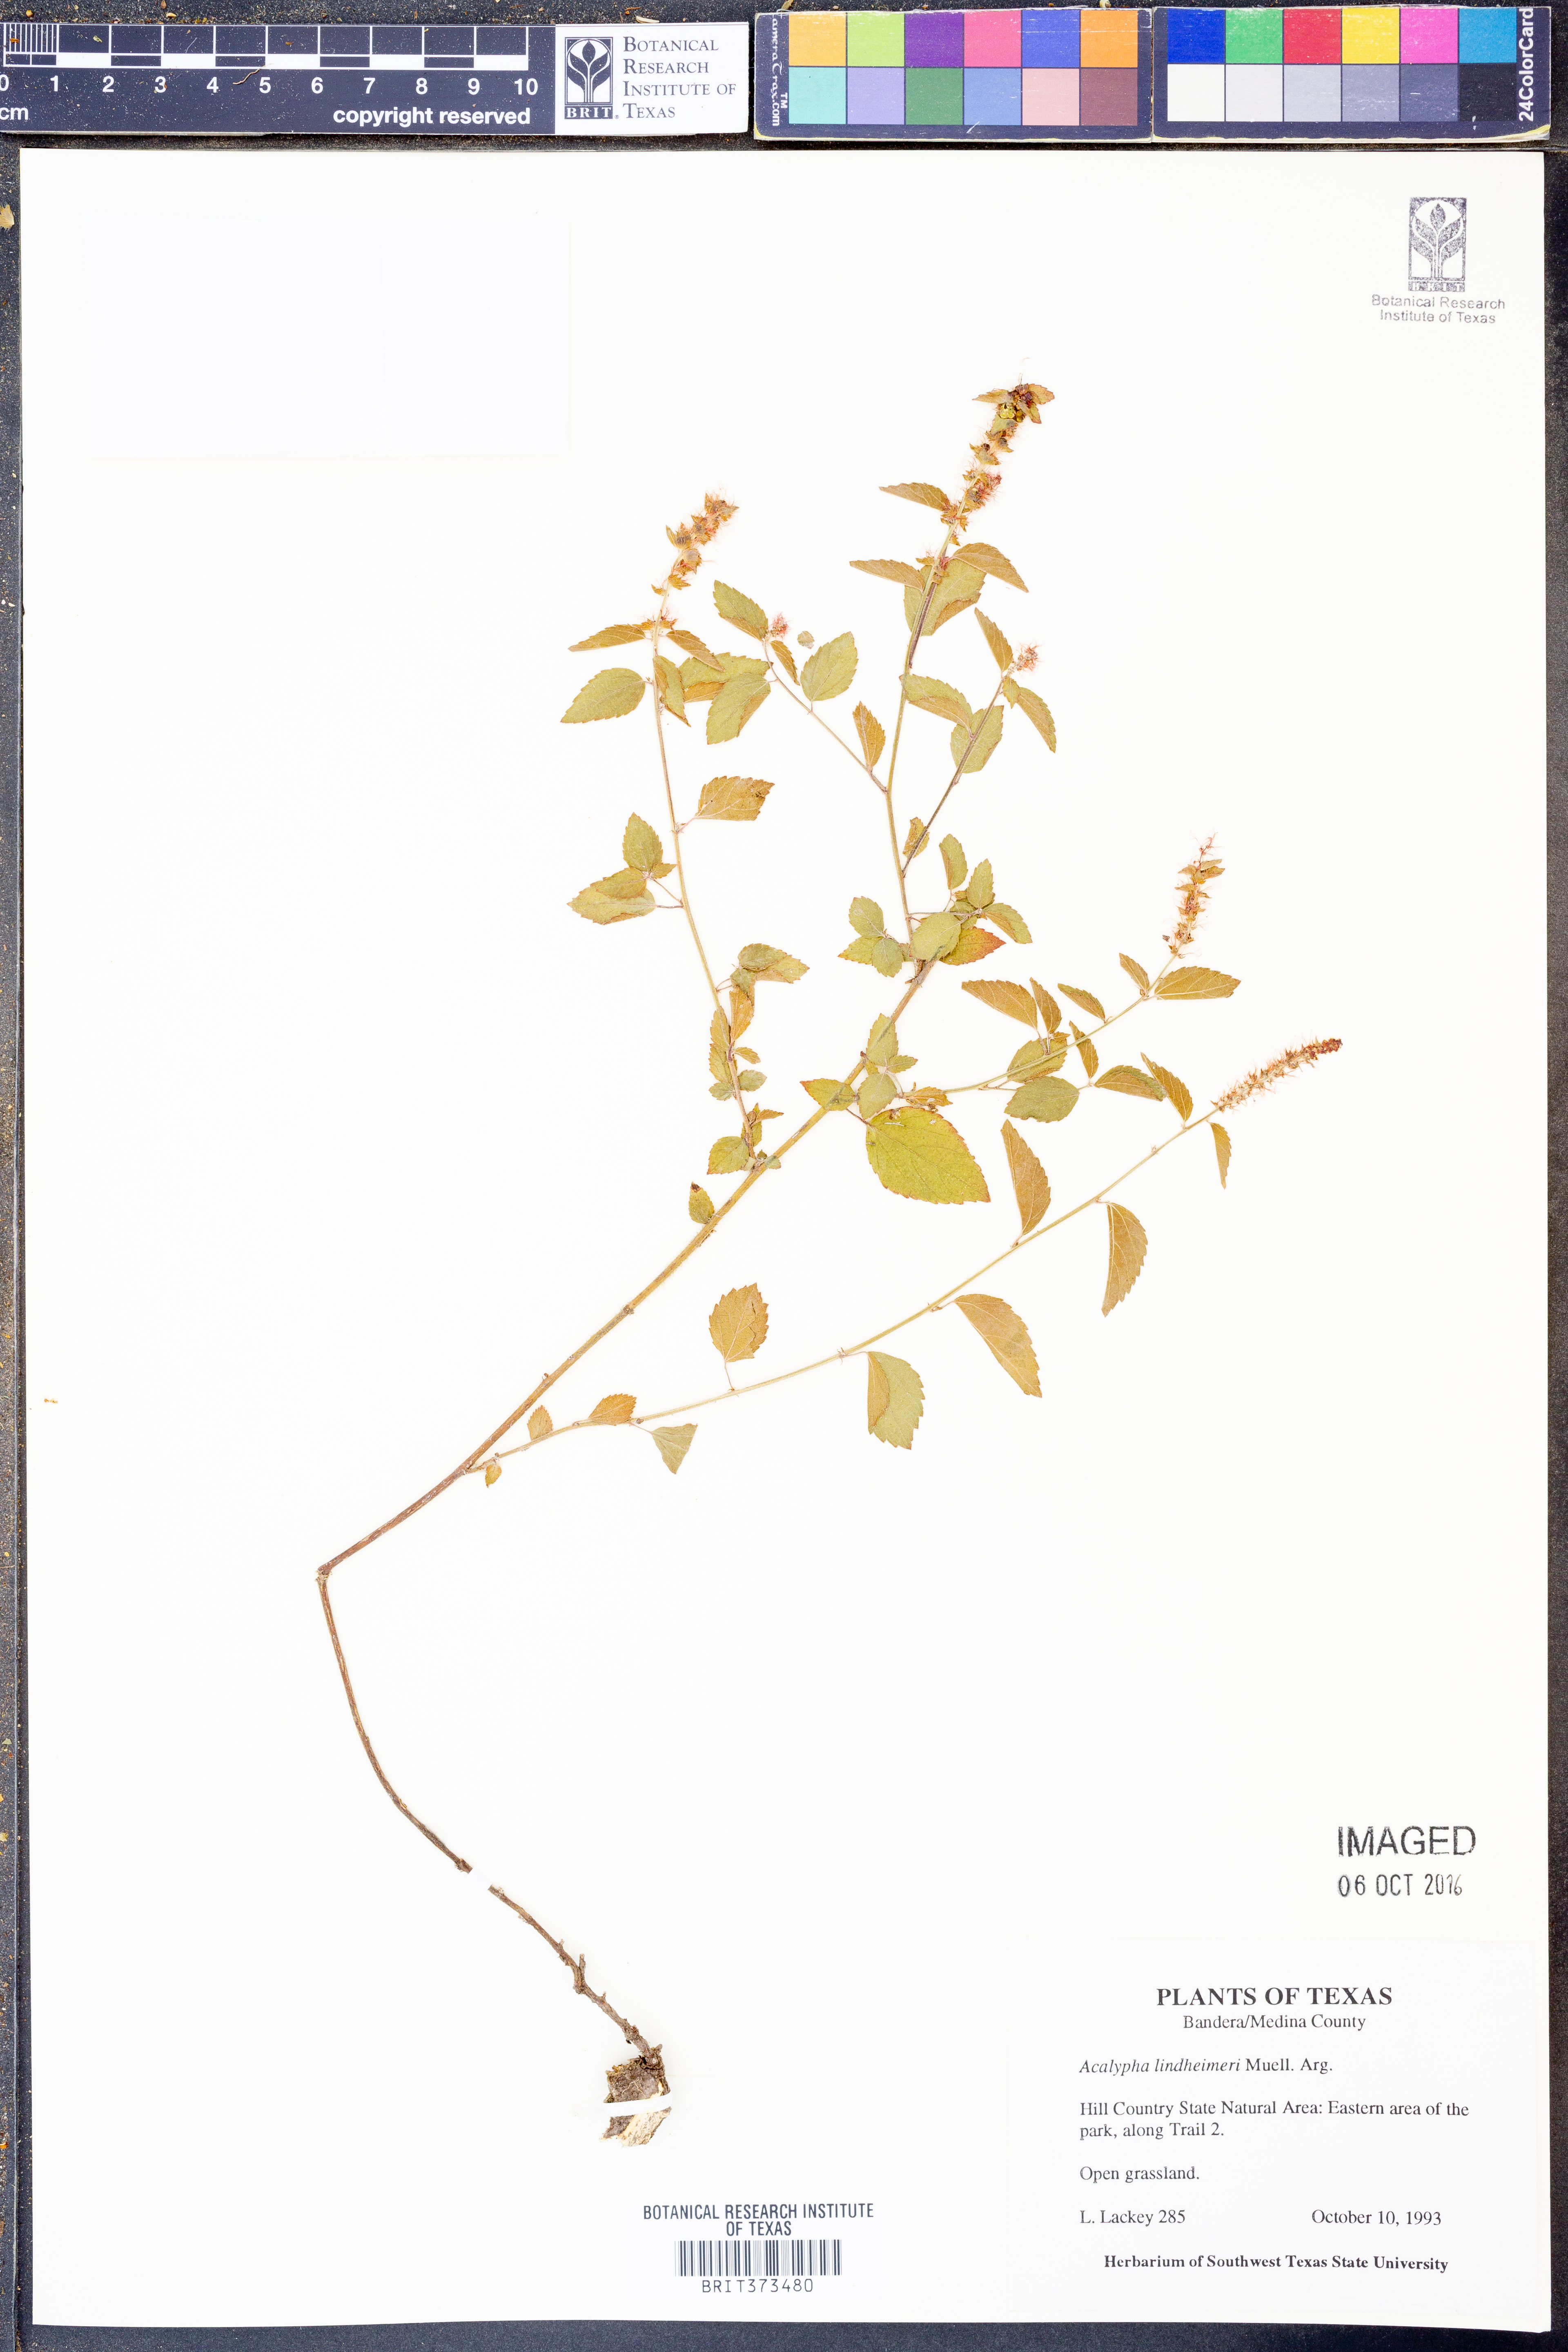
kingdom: Plantae
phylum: Tracheophyta
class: Magnoliopsida
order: Malpighiales
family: Euphorbiaceae
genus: Acalypha
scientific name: Acalypha phleoides
